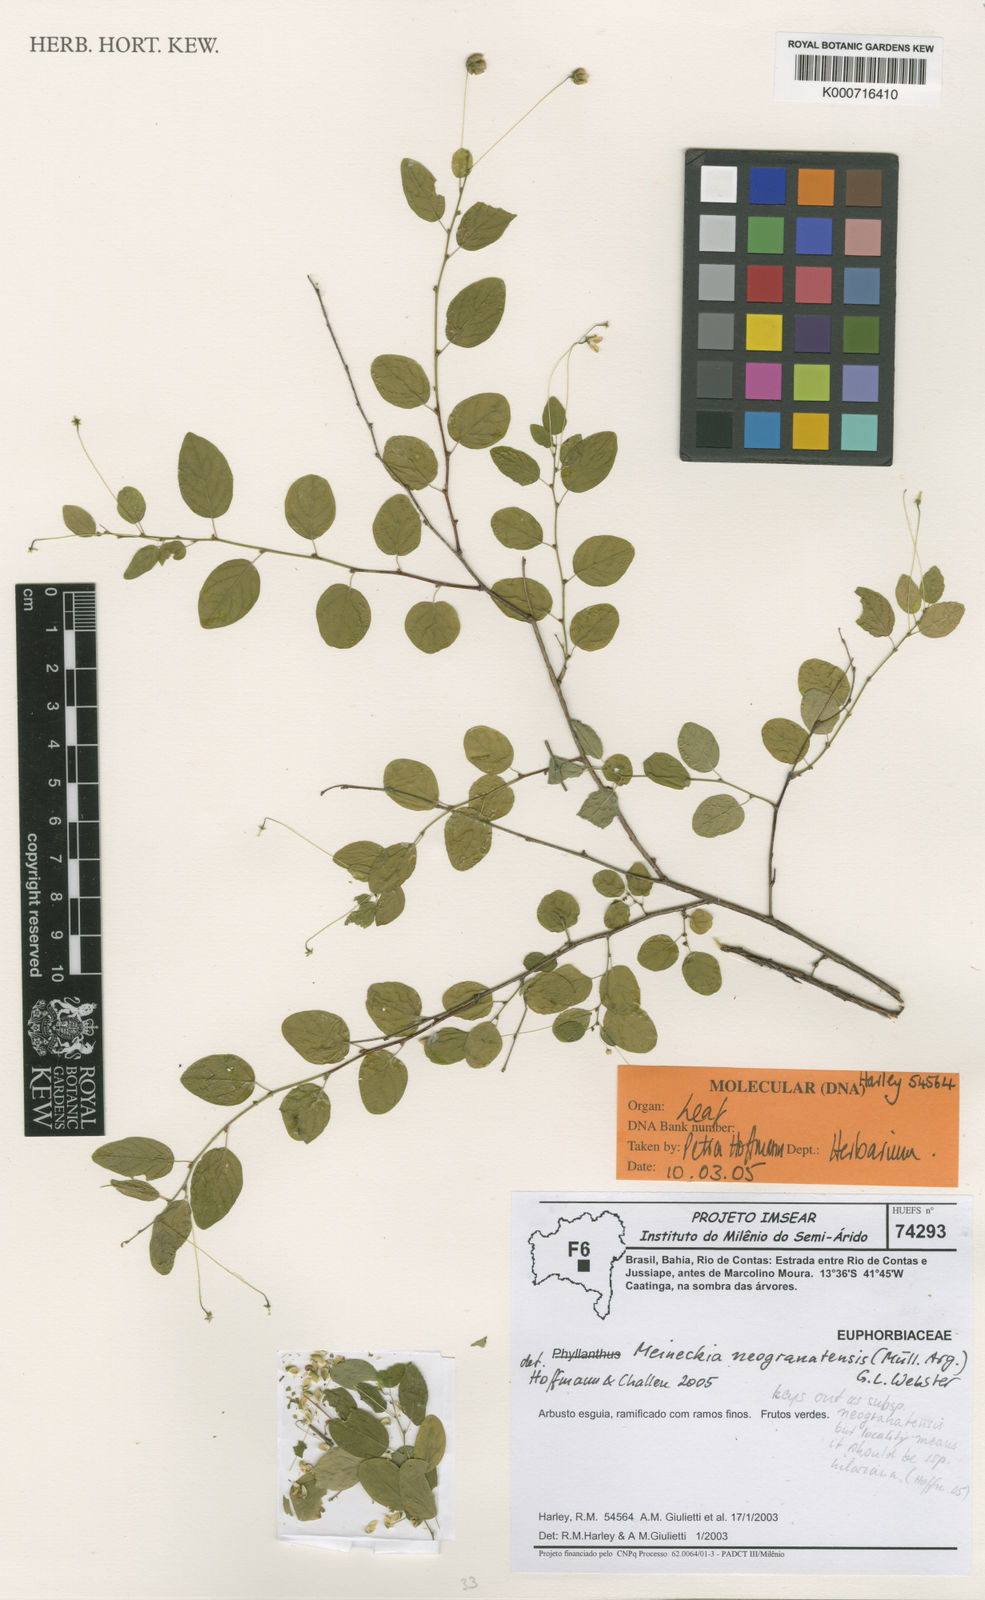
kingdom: Plantae
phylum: Tracheophyta
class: Magnoliopsida
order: Malpighiales
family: Phyllanthaceae
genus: Meineckia
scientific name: Meineckia
